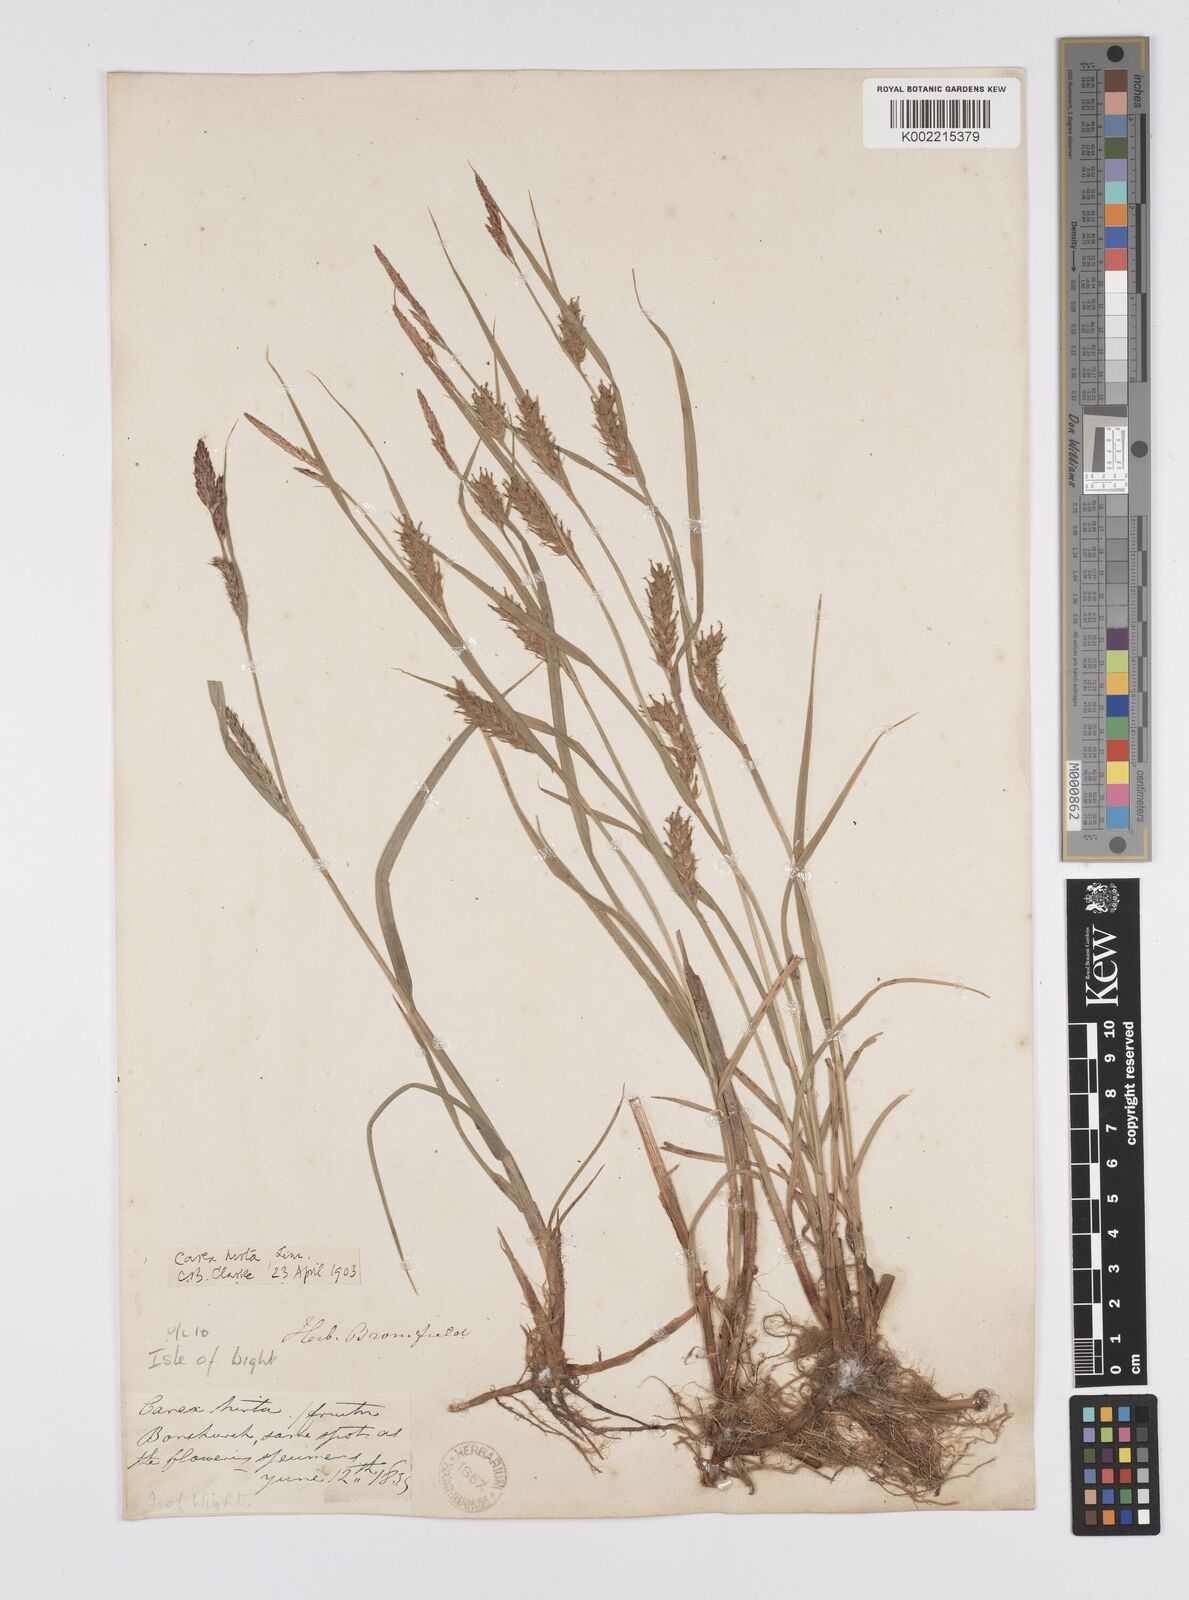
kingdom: Plantae
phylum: Tracheophyta
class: Liliopsida
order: Poales
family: Cyperaceae
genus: Carex
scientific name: Carex hirta
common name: Hairy sedge
